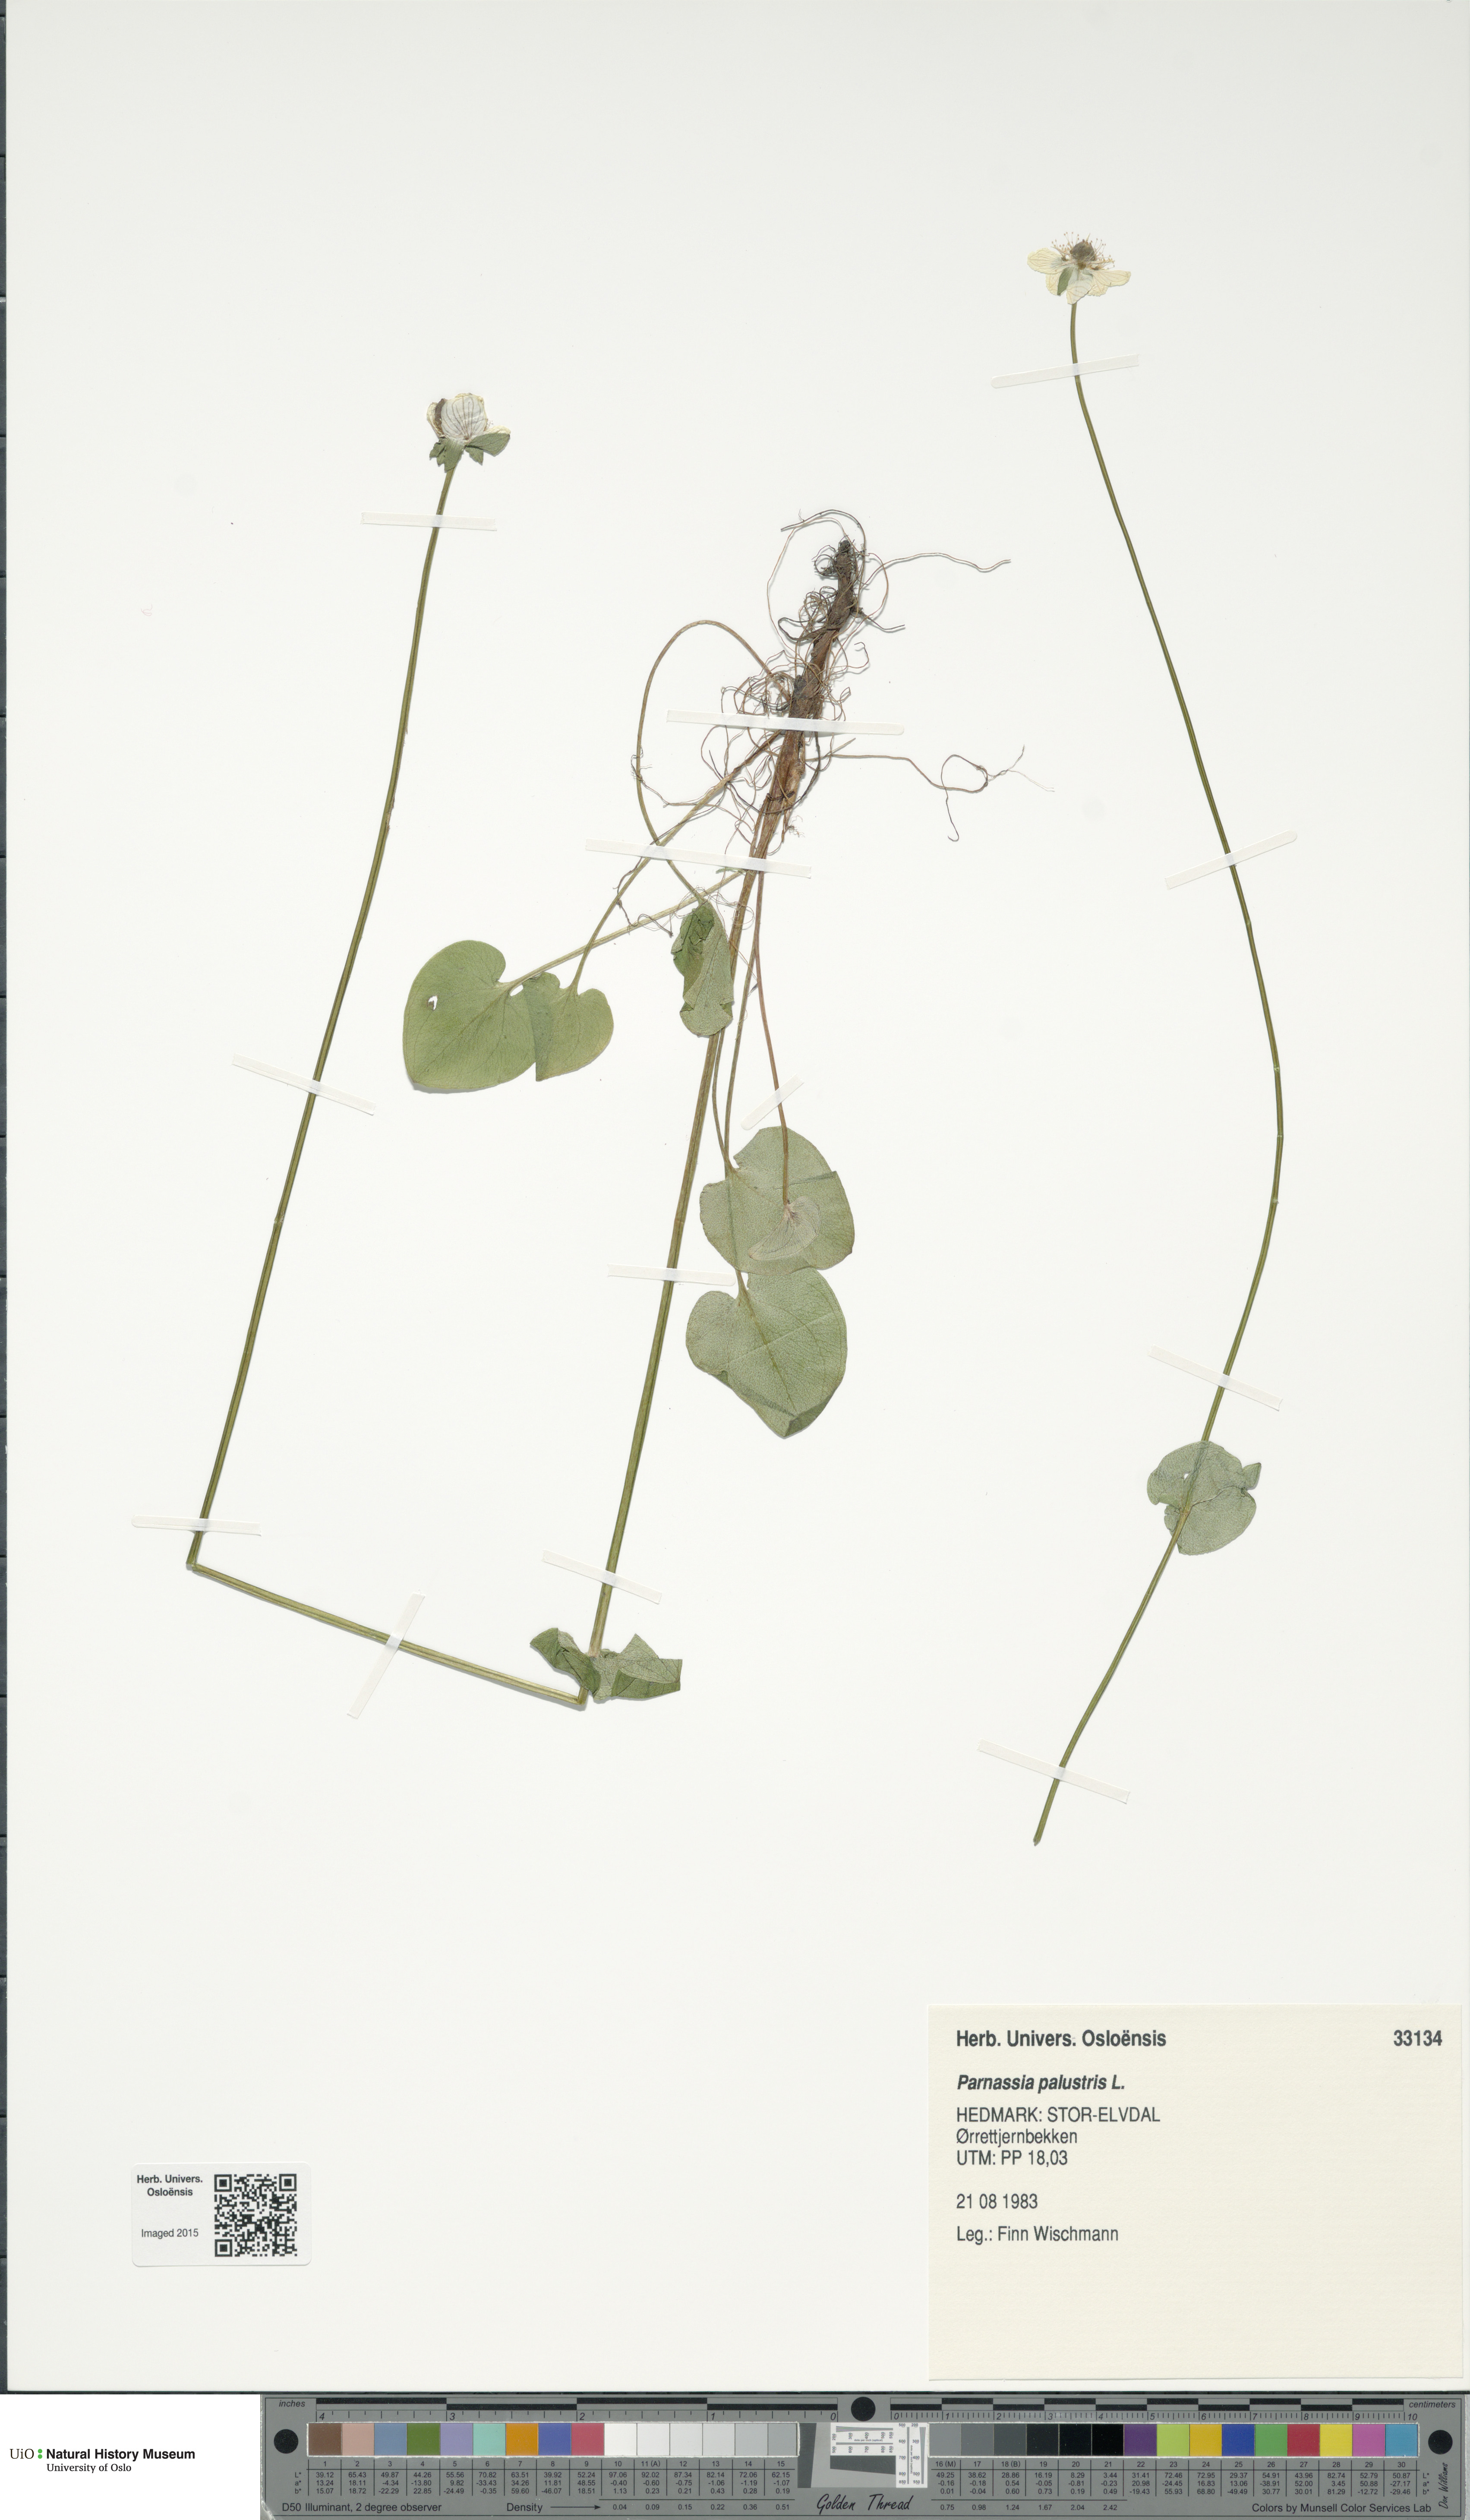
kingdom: Plantae
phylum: Tracheophyta
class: Magnoliopsida
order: Celastrales
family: Parnassiaceae
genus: Parnassia
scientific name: Parnassia palustris
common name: Grass-of-parnassus
